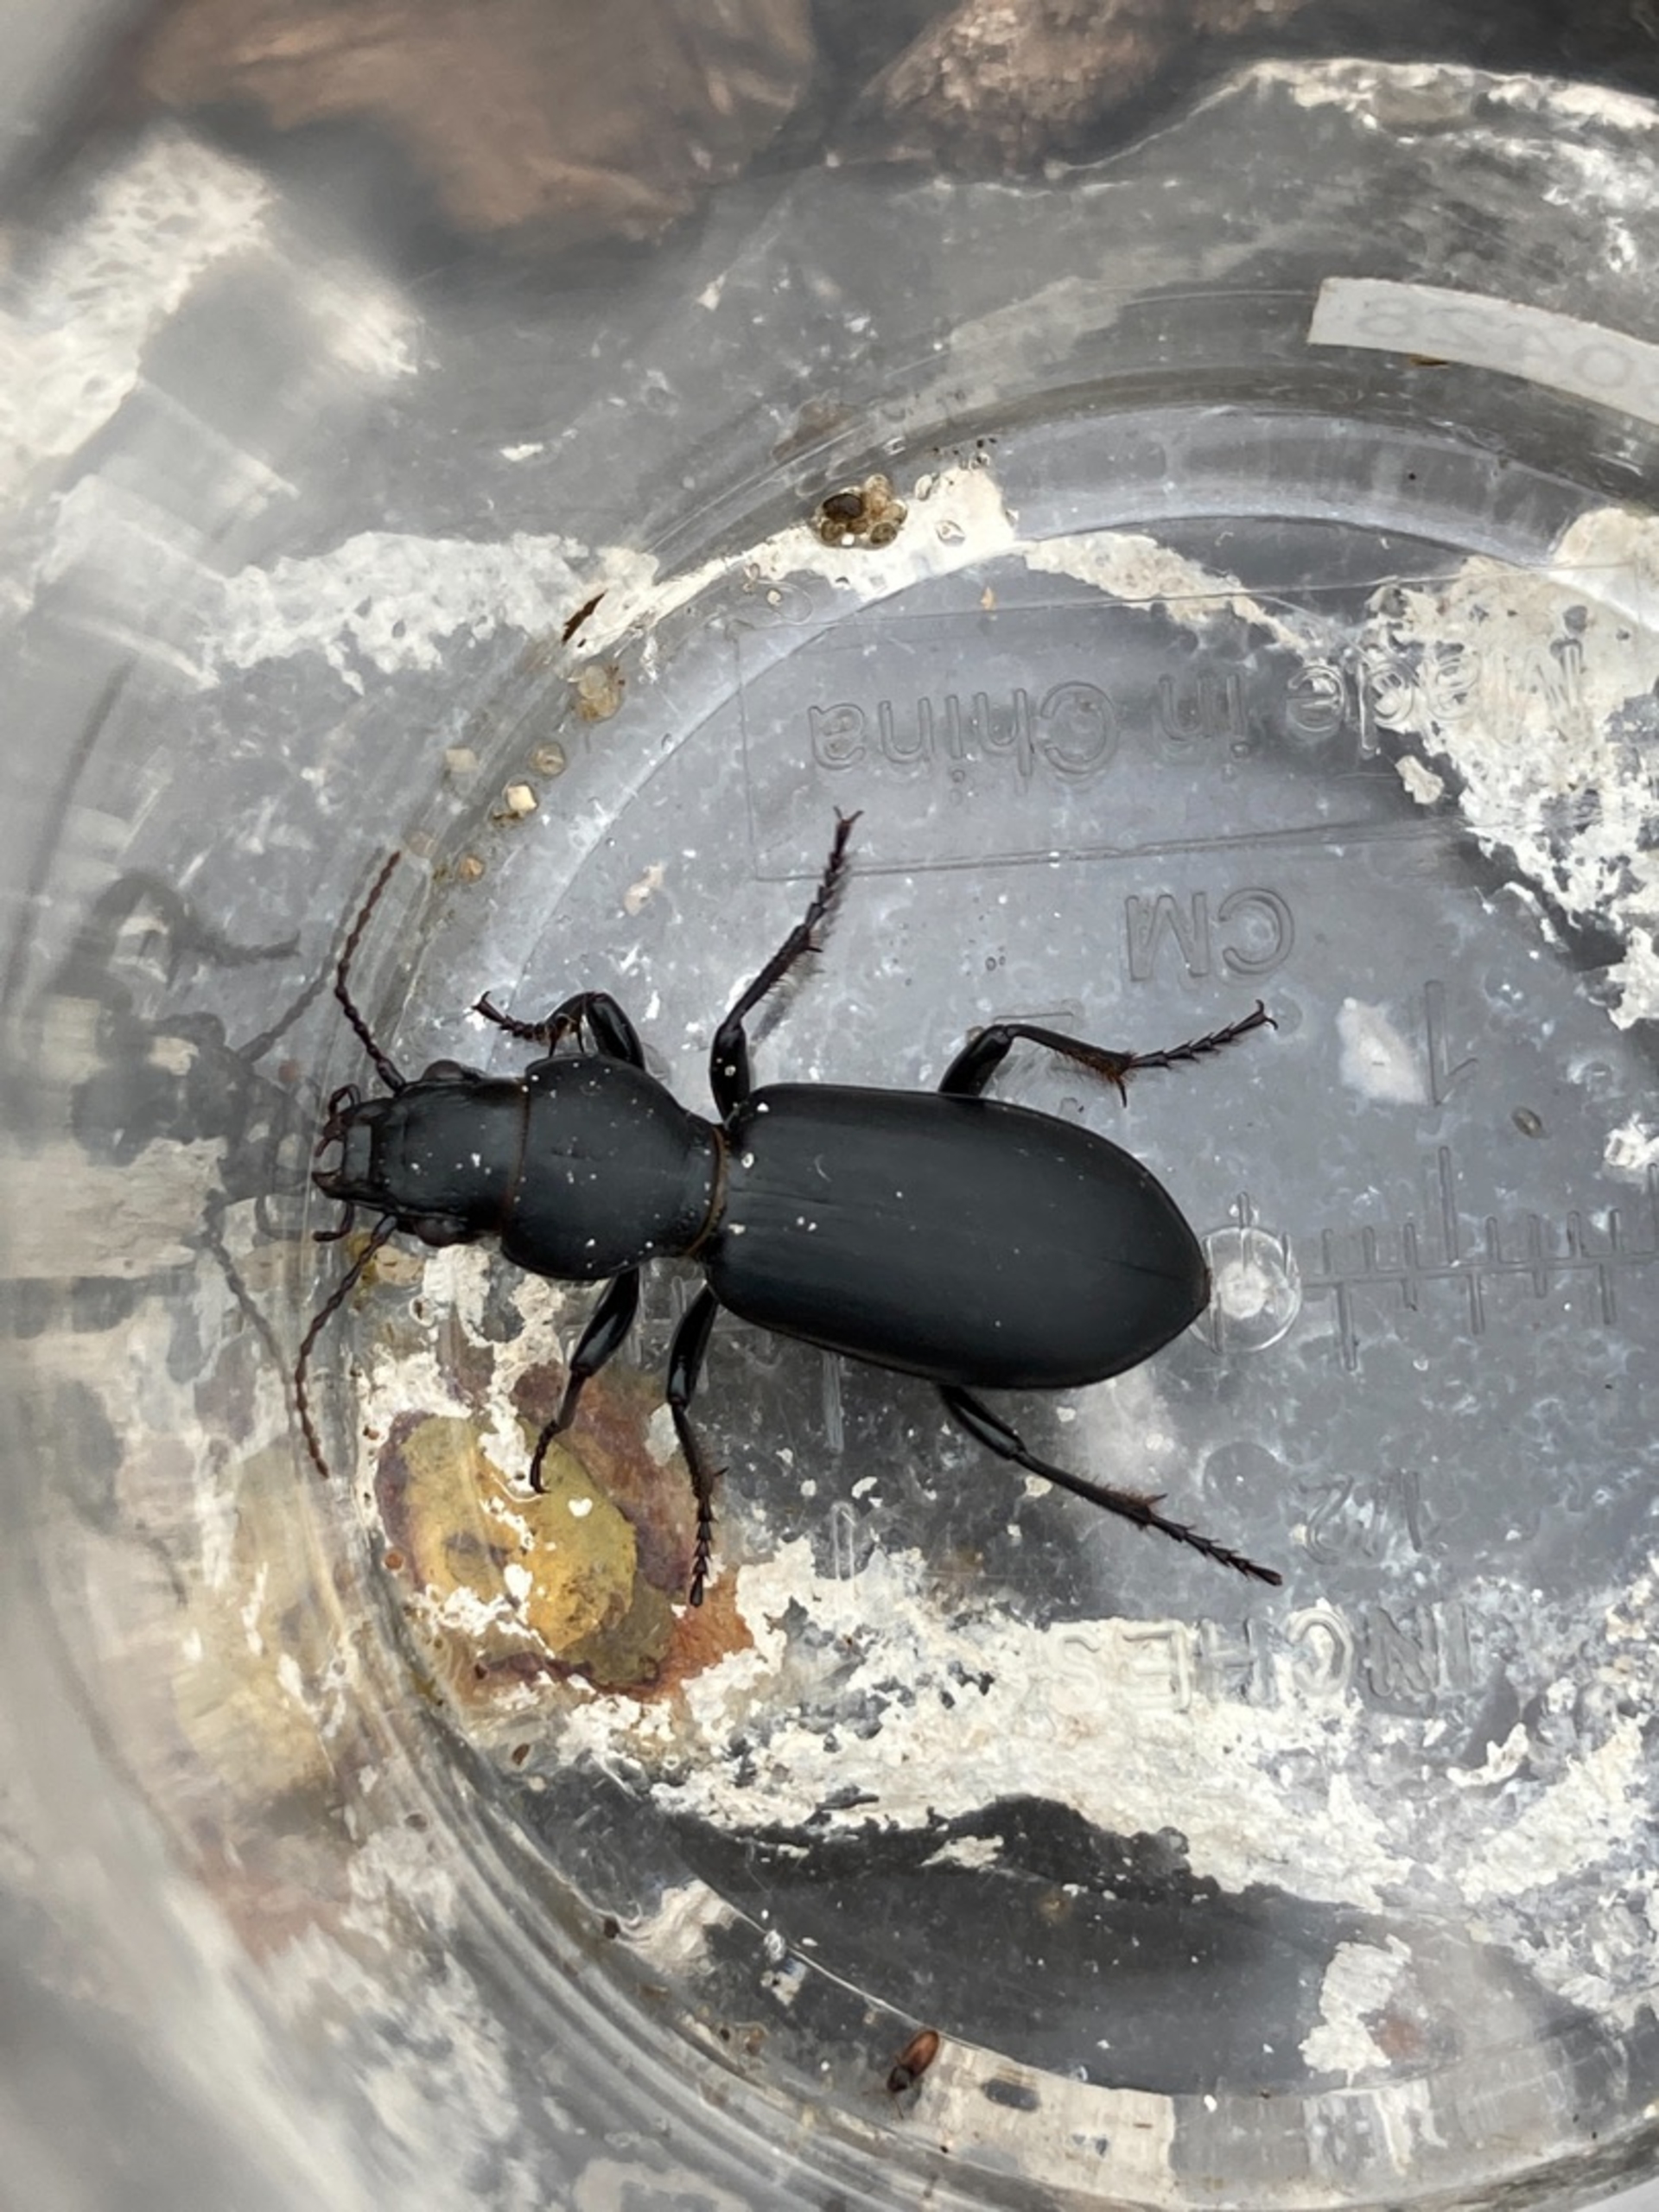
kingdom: Animalia
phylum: Arthropoda
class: Insecta
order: Coleoptera
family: Carabidae
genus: Broscus
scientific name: Broscus cephalotes
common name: Sandgraver
